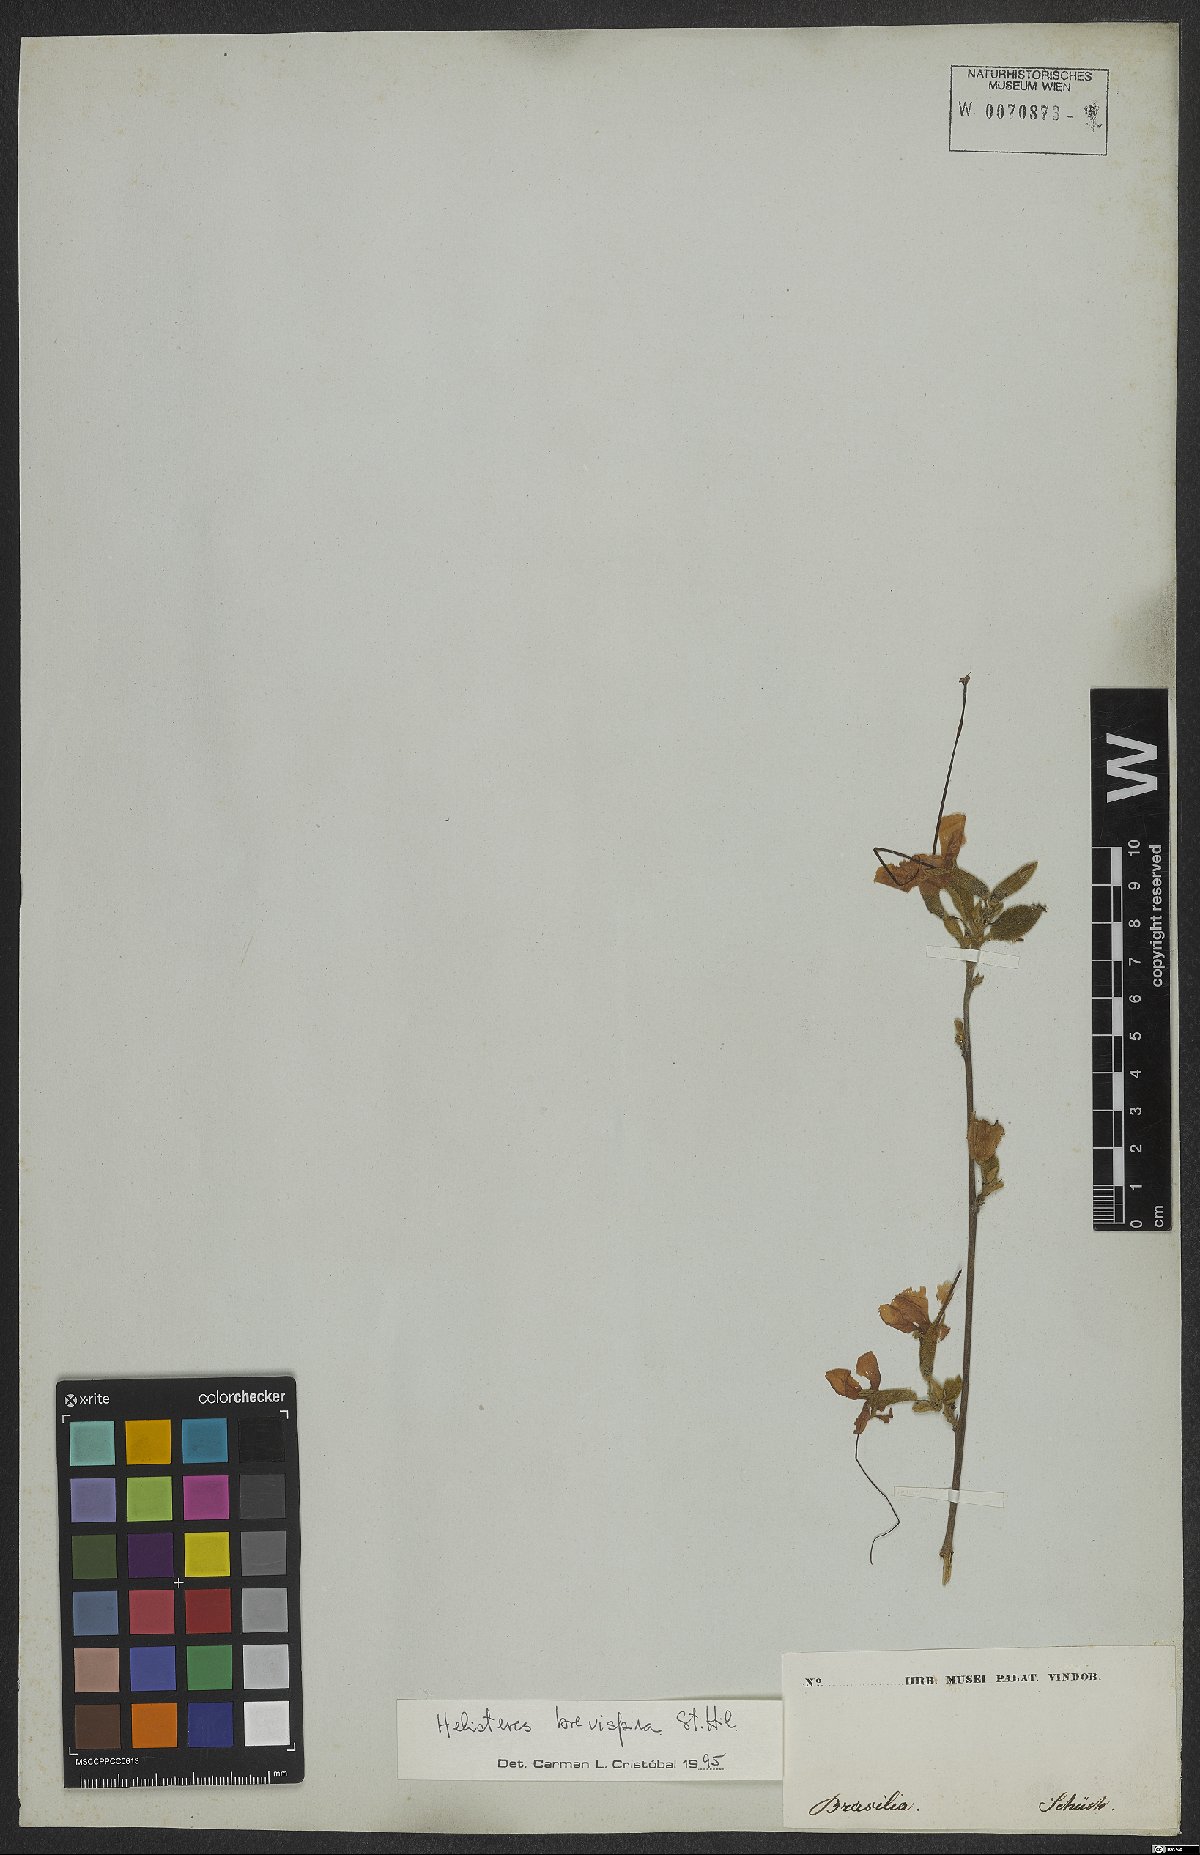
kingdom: Plantae
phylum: Tracheophyta
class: Magnoliopsida
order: Malvales
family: Malvaceae
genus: Helicteres
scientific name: Helicteres brevispira
